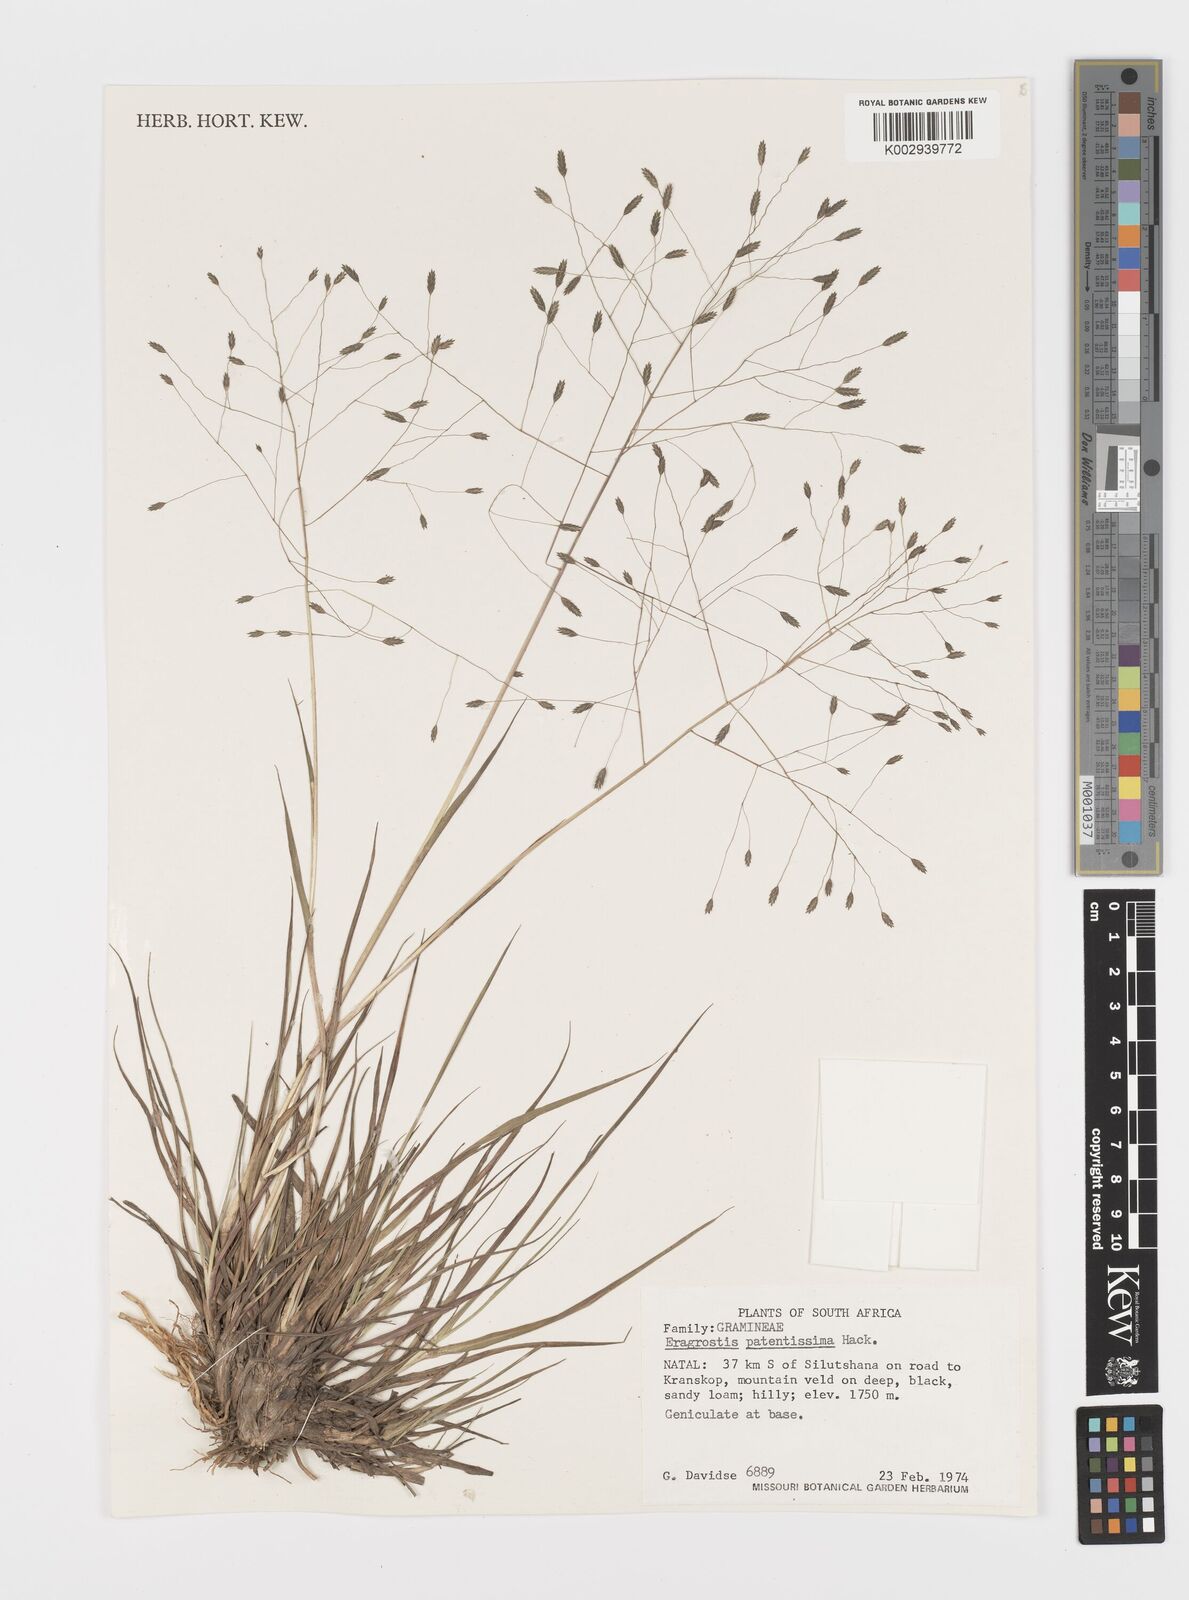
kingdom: Plantae
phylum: Tracheophyta
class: Liliopsida
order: Poales
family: Poaceae
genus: Eragrostis
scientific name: Eragrostis patentissima
